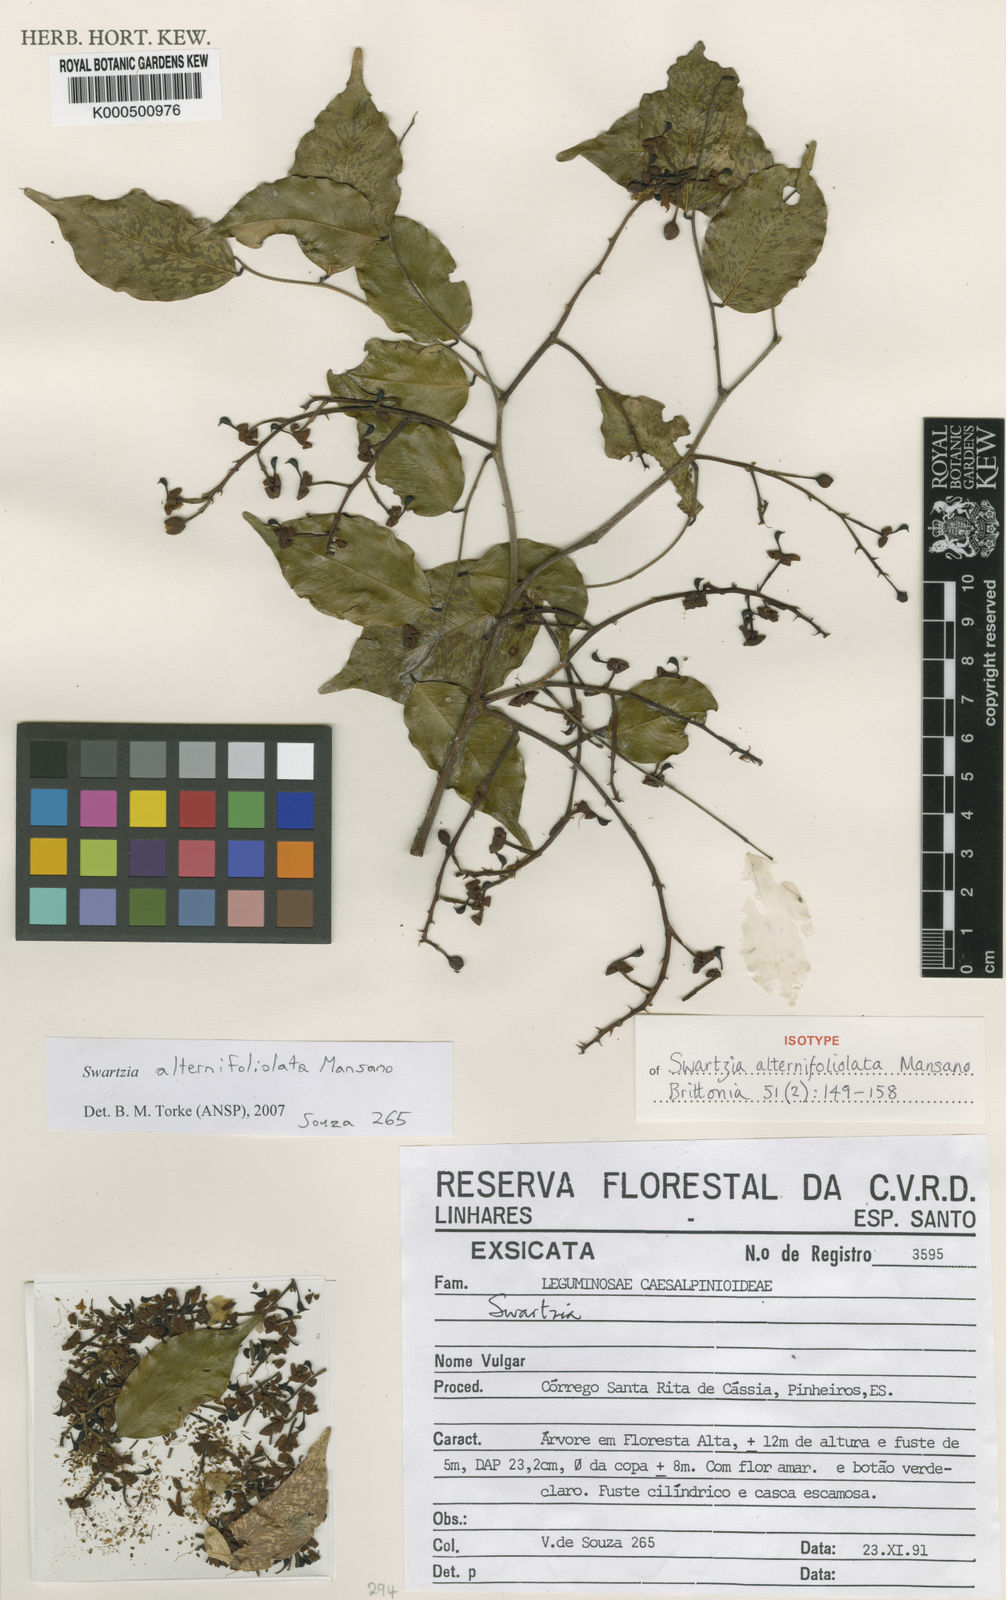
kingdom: Plantae
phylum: Tracheophyta
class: Magnoliopsida
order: Fabales
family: Fabaceae
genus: Swartzia
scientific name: Swartzia alternifoliolata
